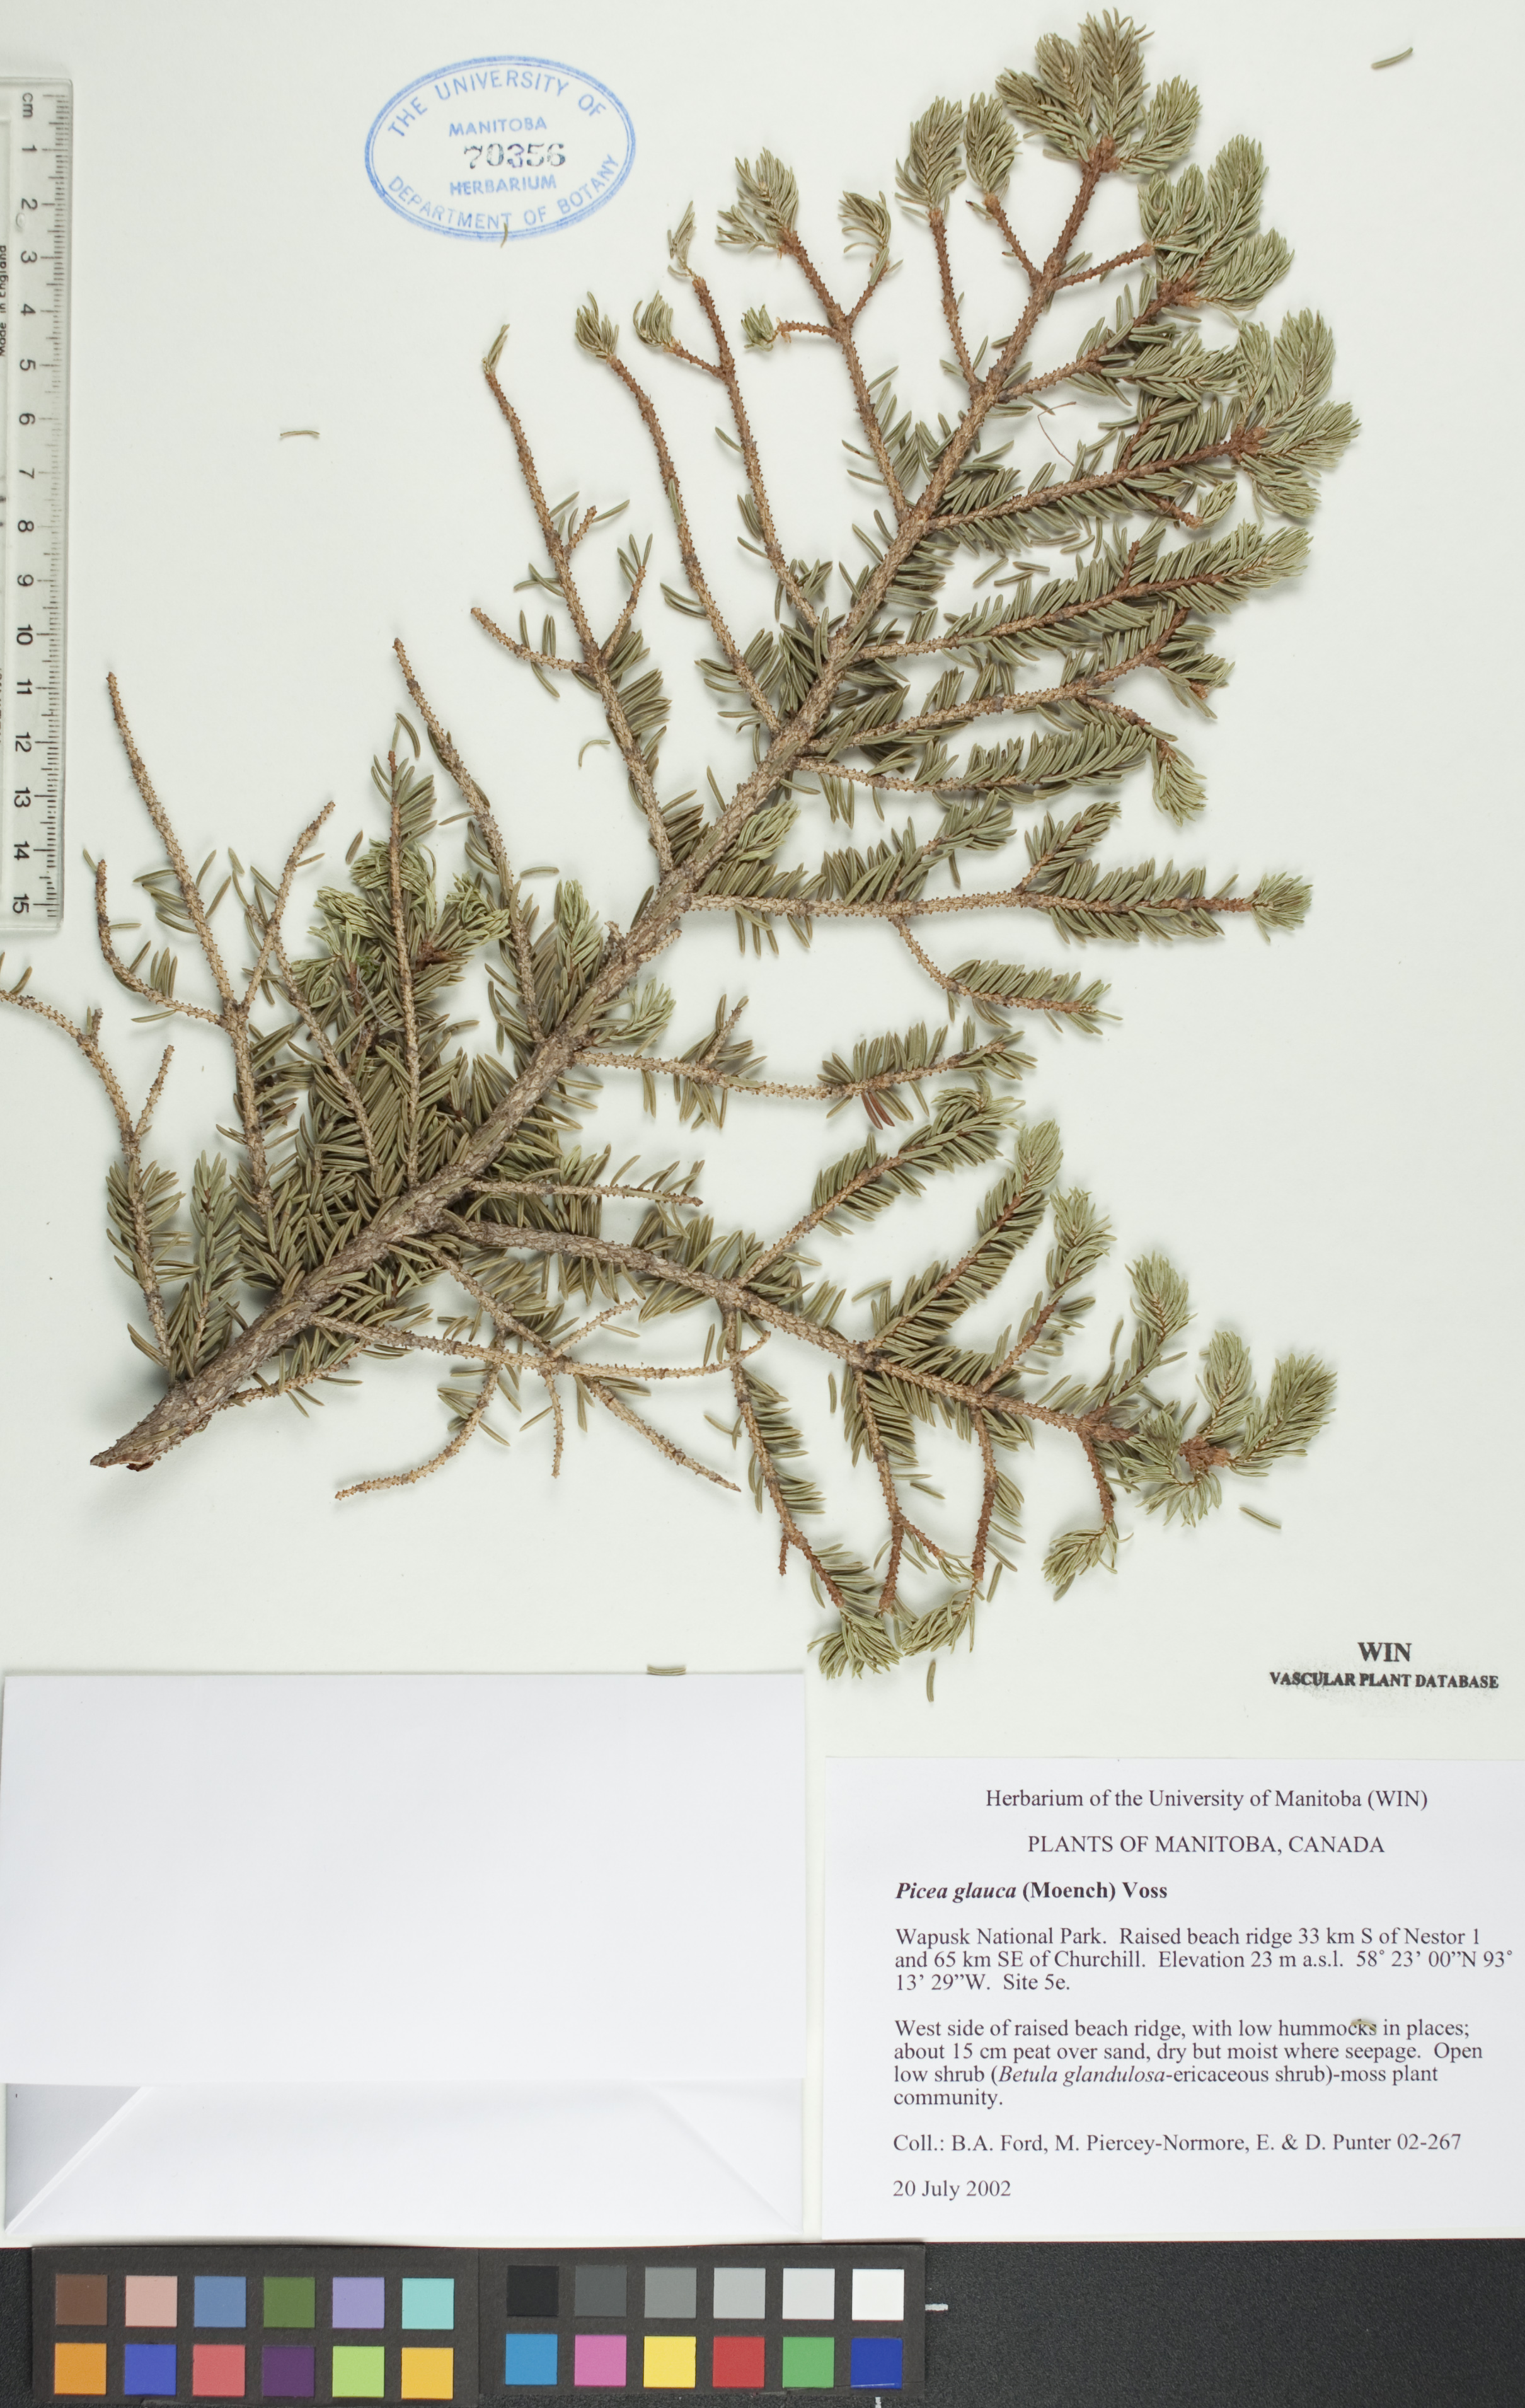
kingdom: Plantae
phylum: Tracheophyta
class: Pinopsida
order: Pinales
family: Pinaceae
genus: Picea
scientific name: Picea glauca
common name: White spruce
